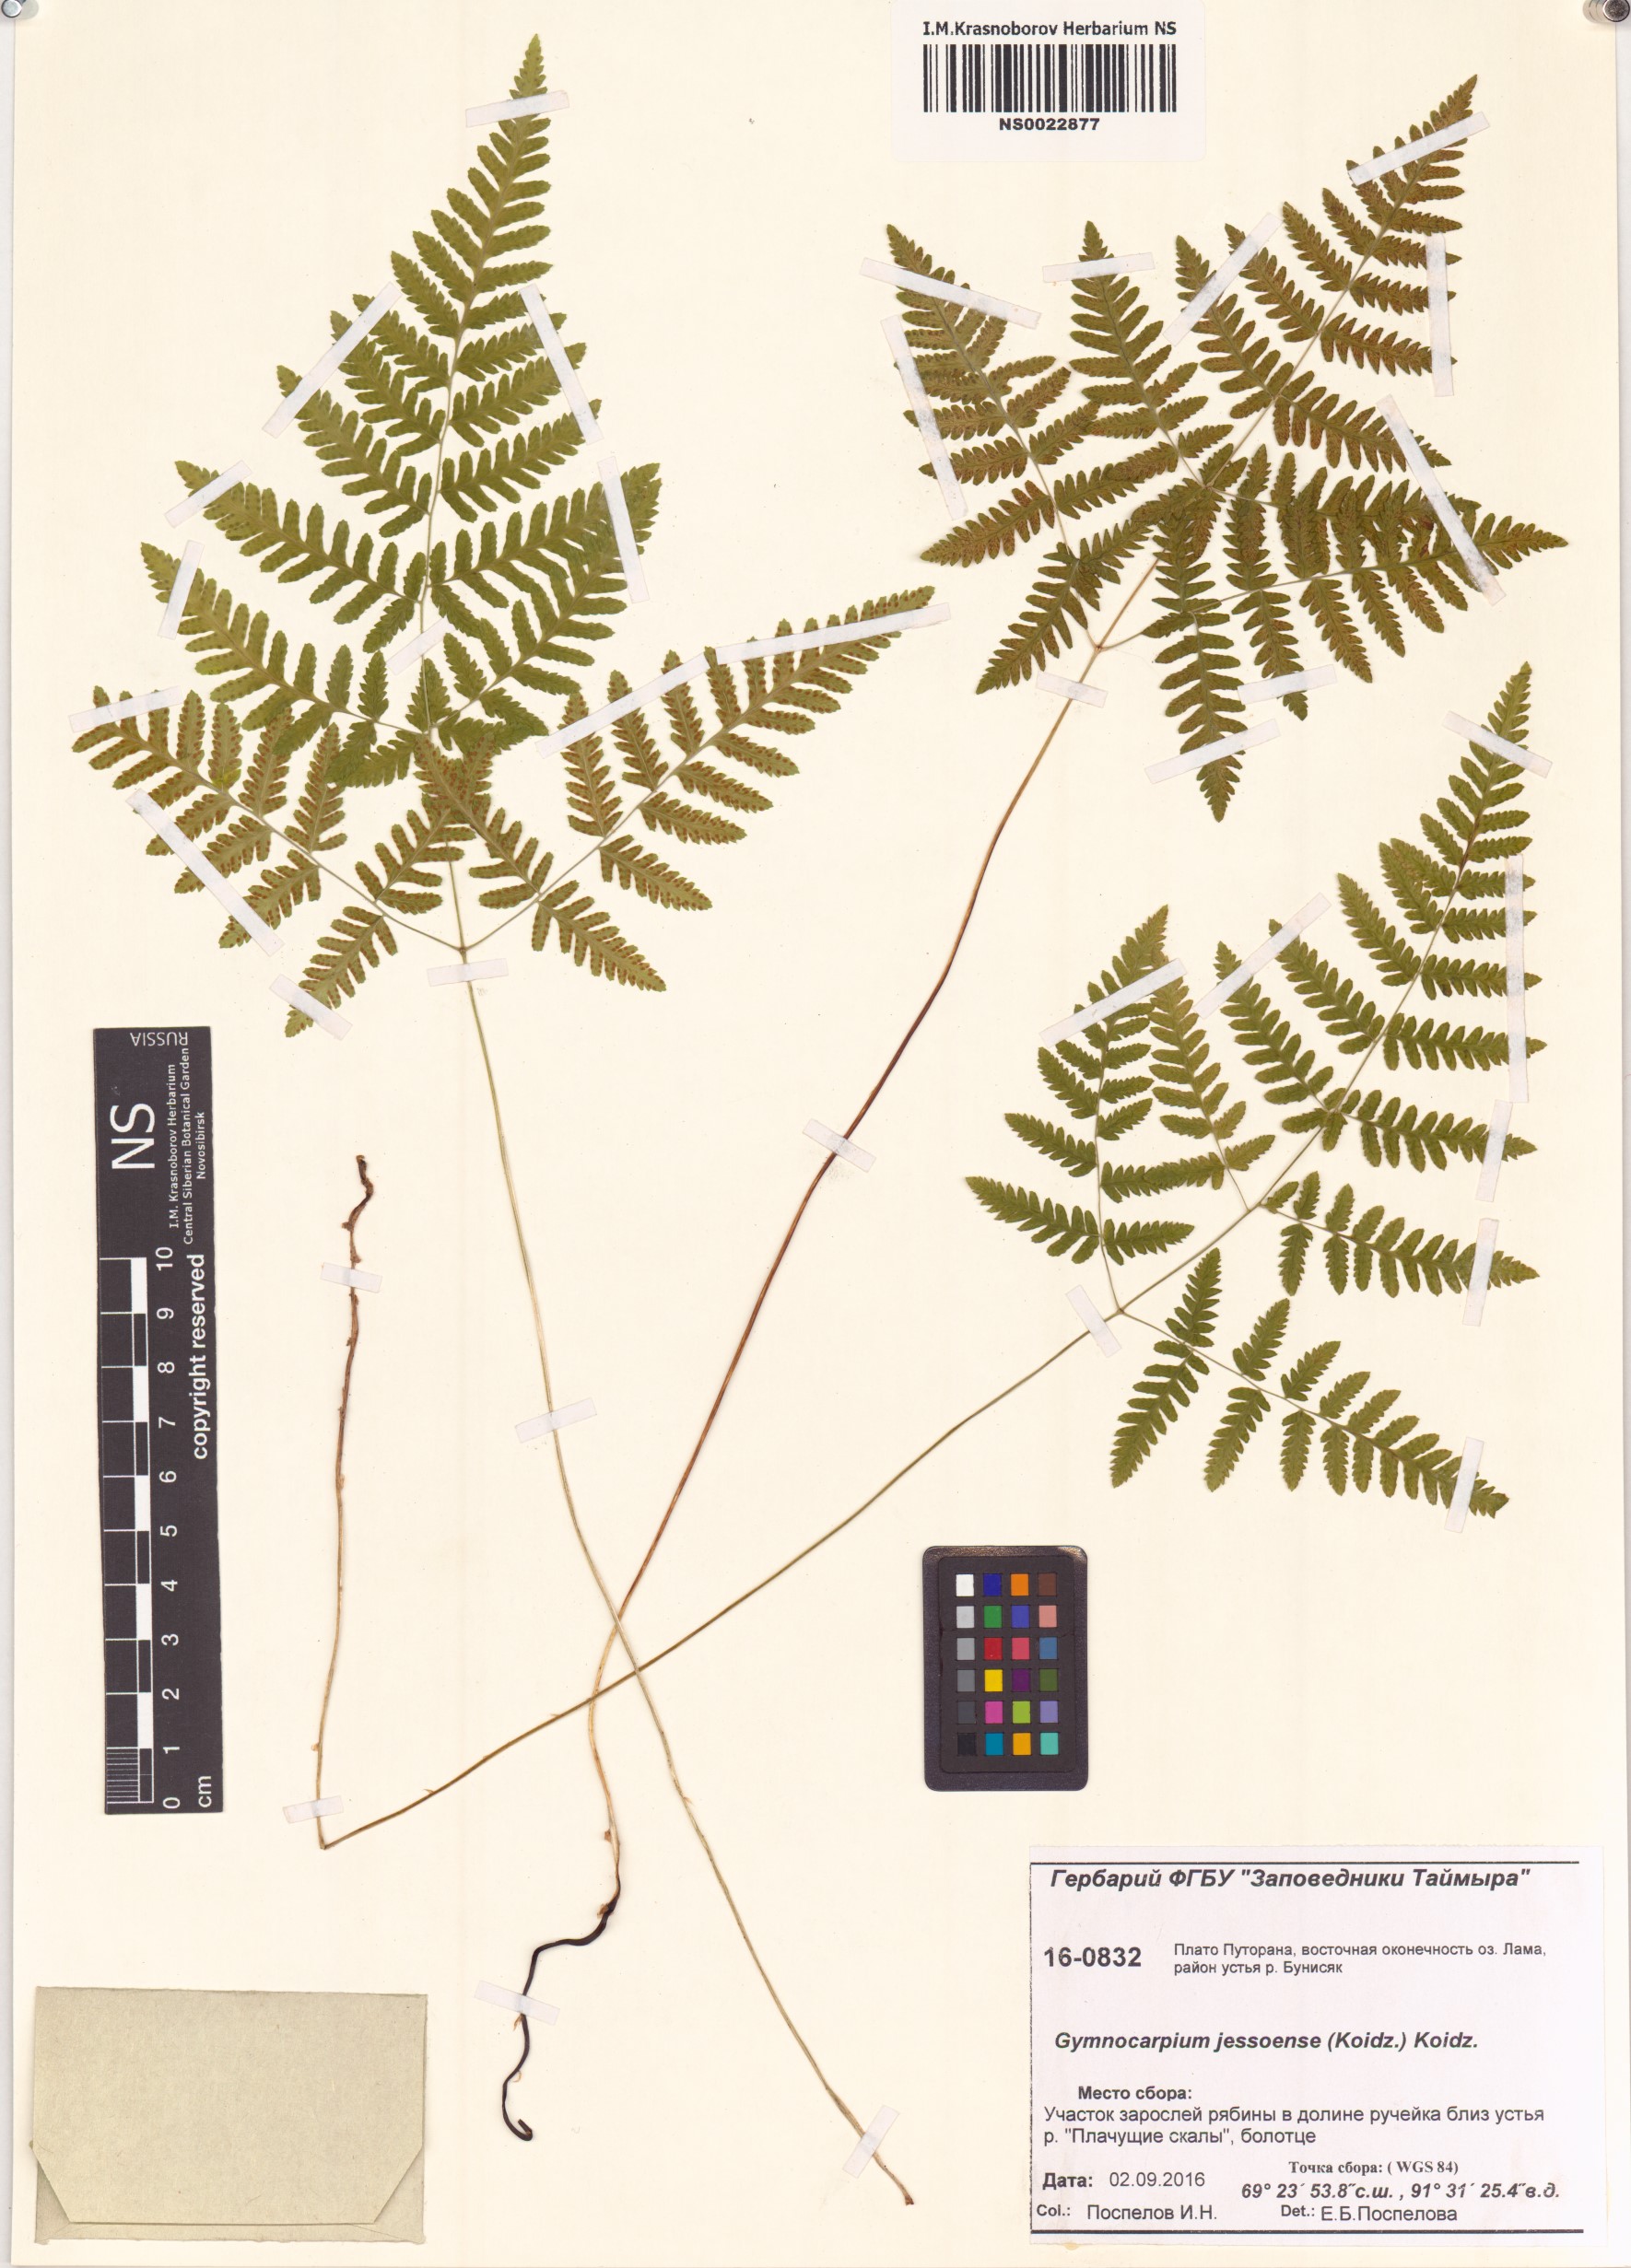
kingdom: Plantae
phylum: Tracheophyta
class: Polypodiopsida
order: Polypodiales
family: Cystopteridaceae
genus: Gymnocarpium
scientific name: Gymnocarpium jessoense
